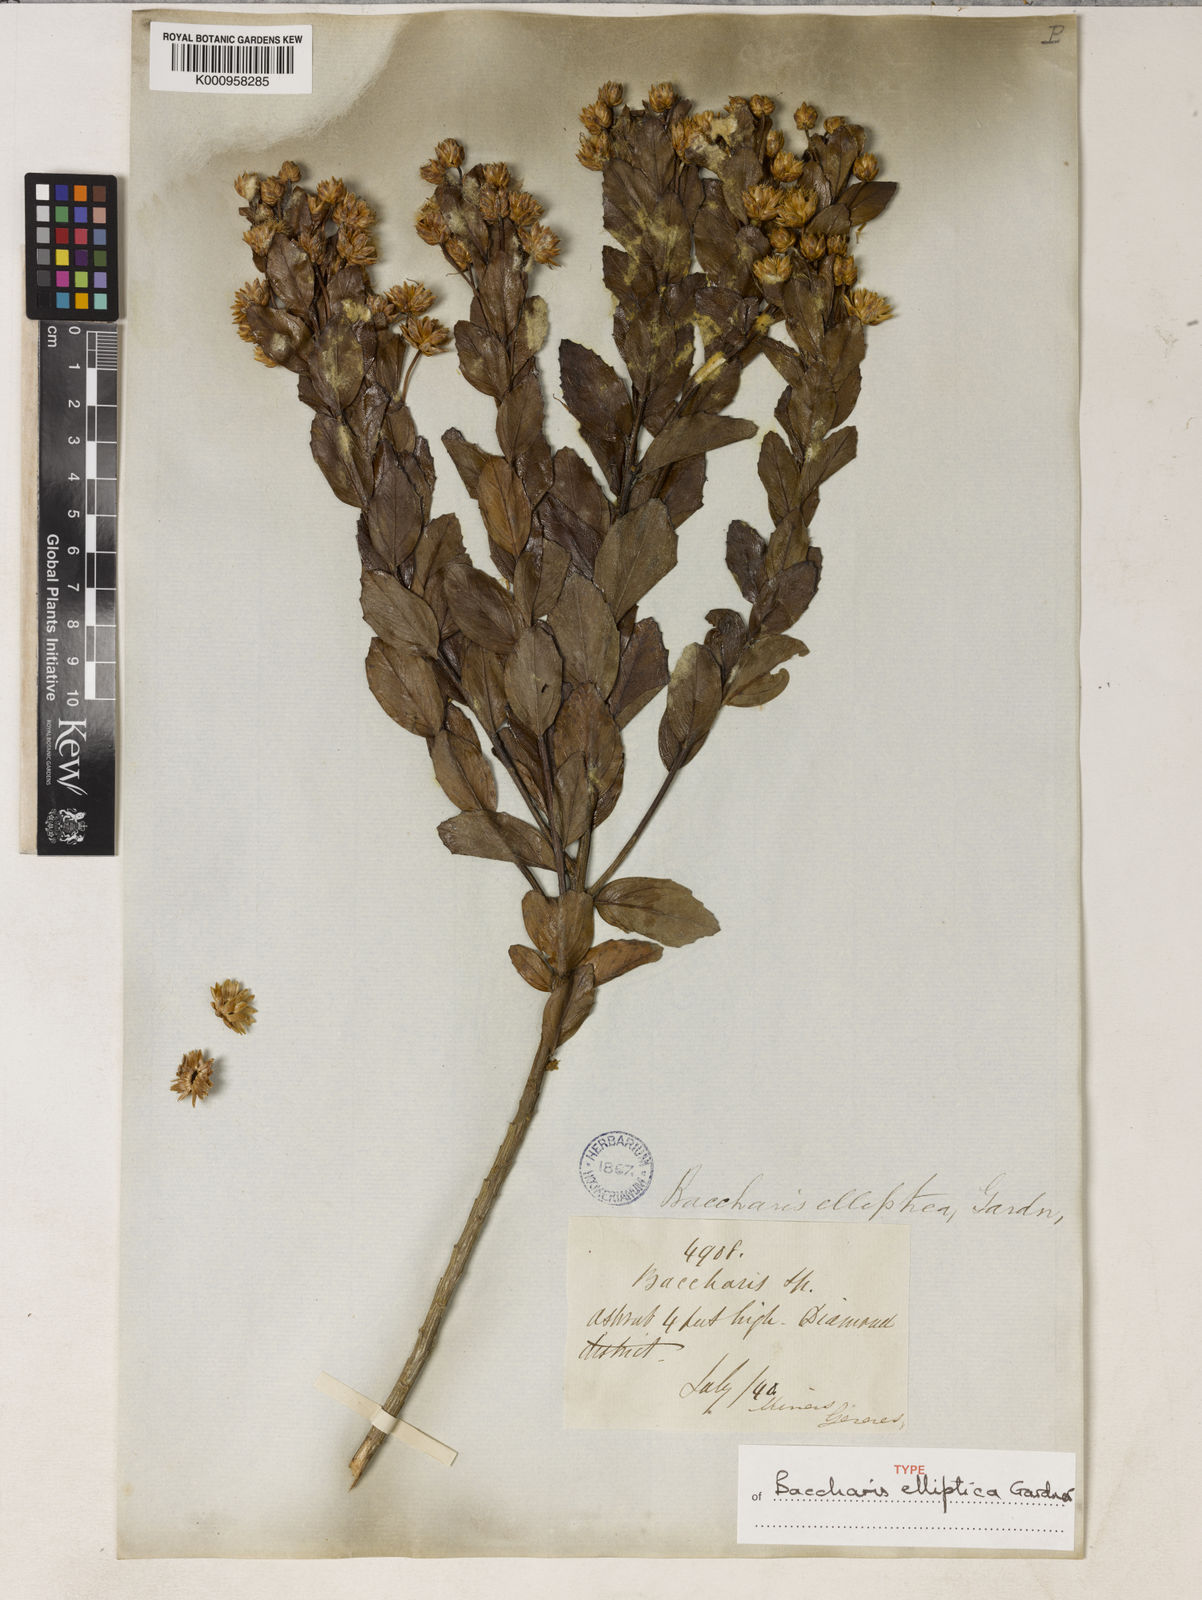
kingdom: Plantae
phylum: Tracheophyta
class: Magnoliopsida
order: Asterales
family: Asteraceae
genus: Baccharis
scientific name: Baccharis elliptica
